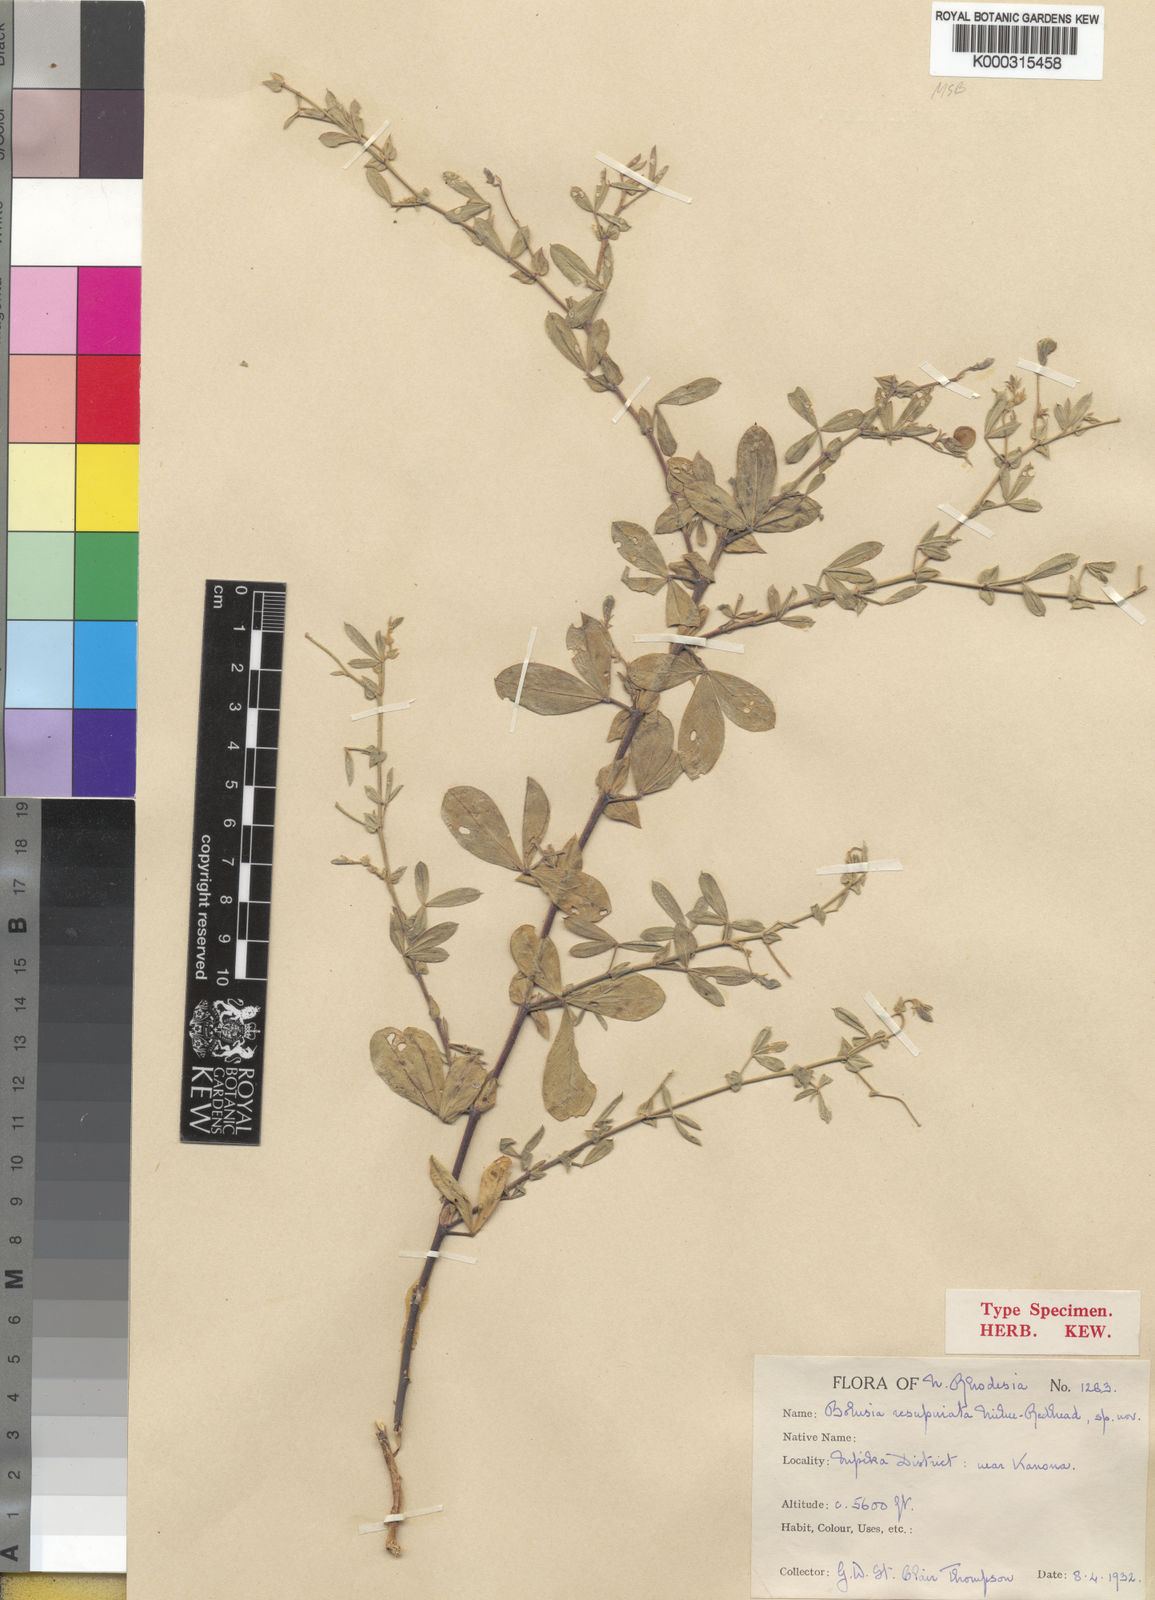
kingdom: Plantae
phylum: Tracheophyta
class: Magnoliopsida
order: Fabales
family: Fabaceae
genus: Bolusia
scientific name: Bolusia resupinata
